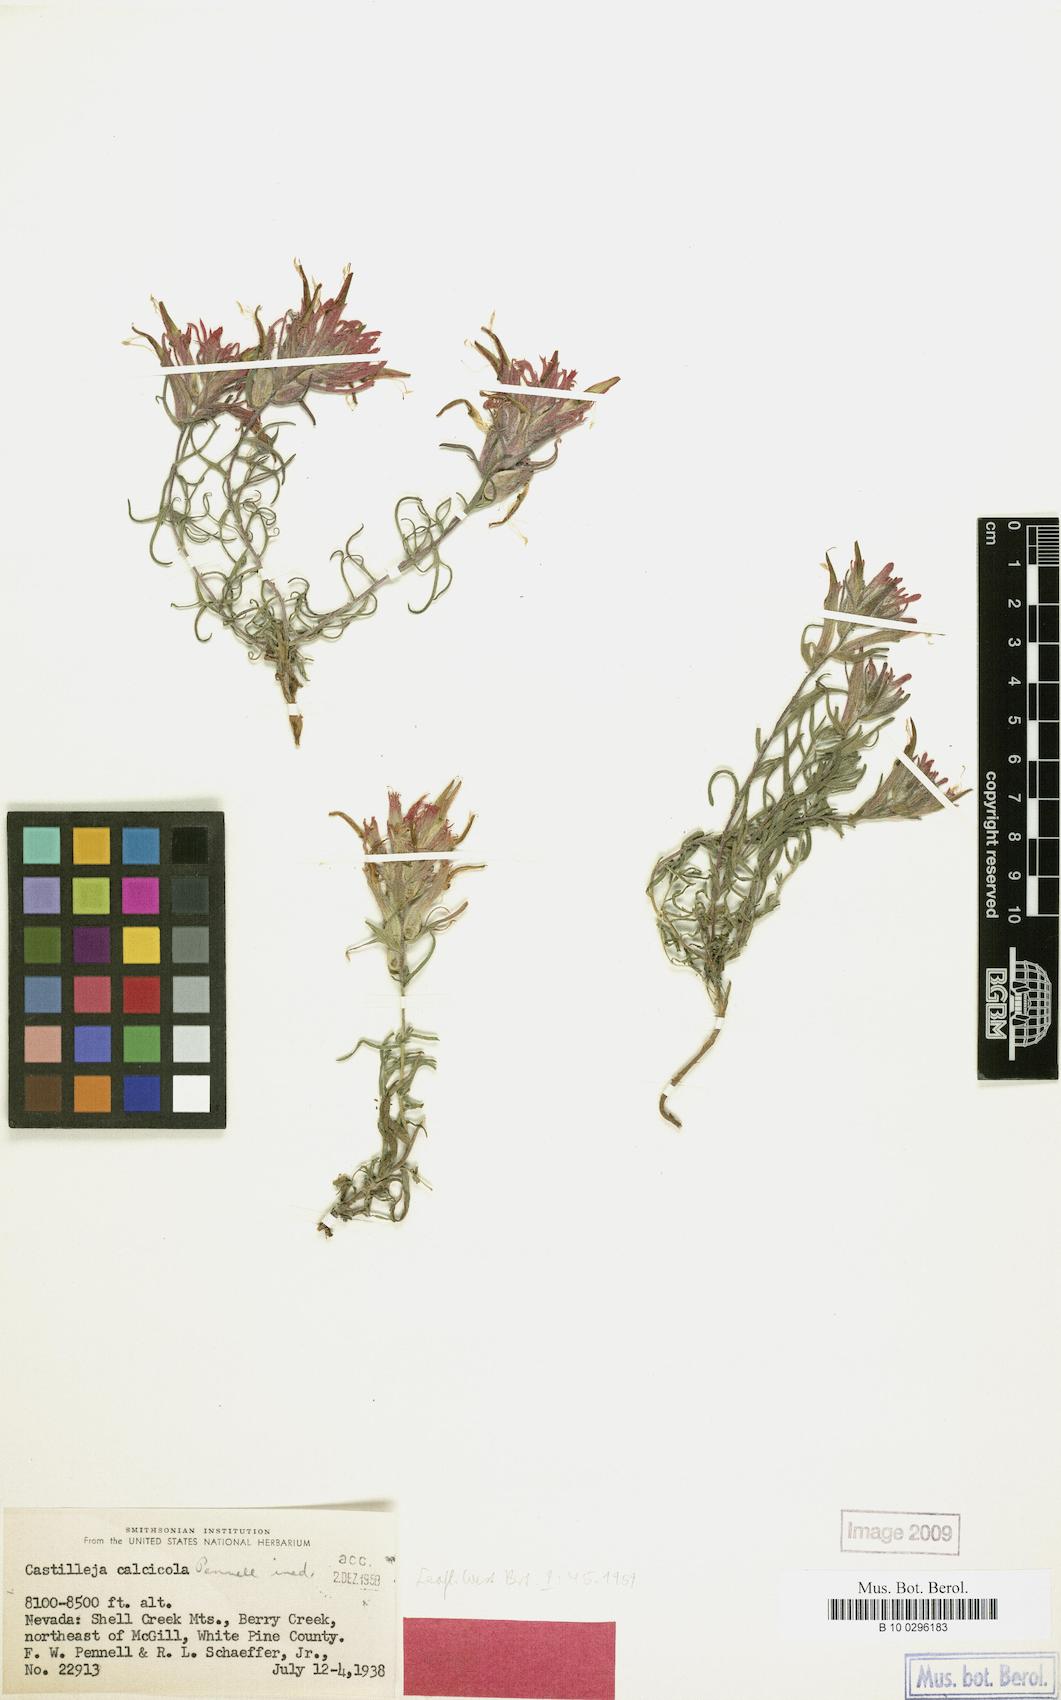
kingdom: Plantae
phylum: Tracheophyta
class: Magnoliopsida
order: Lamiales
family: Orobanchaceae
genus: Castilleja
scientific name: Castilleja scabrida
